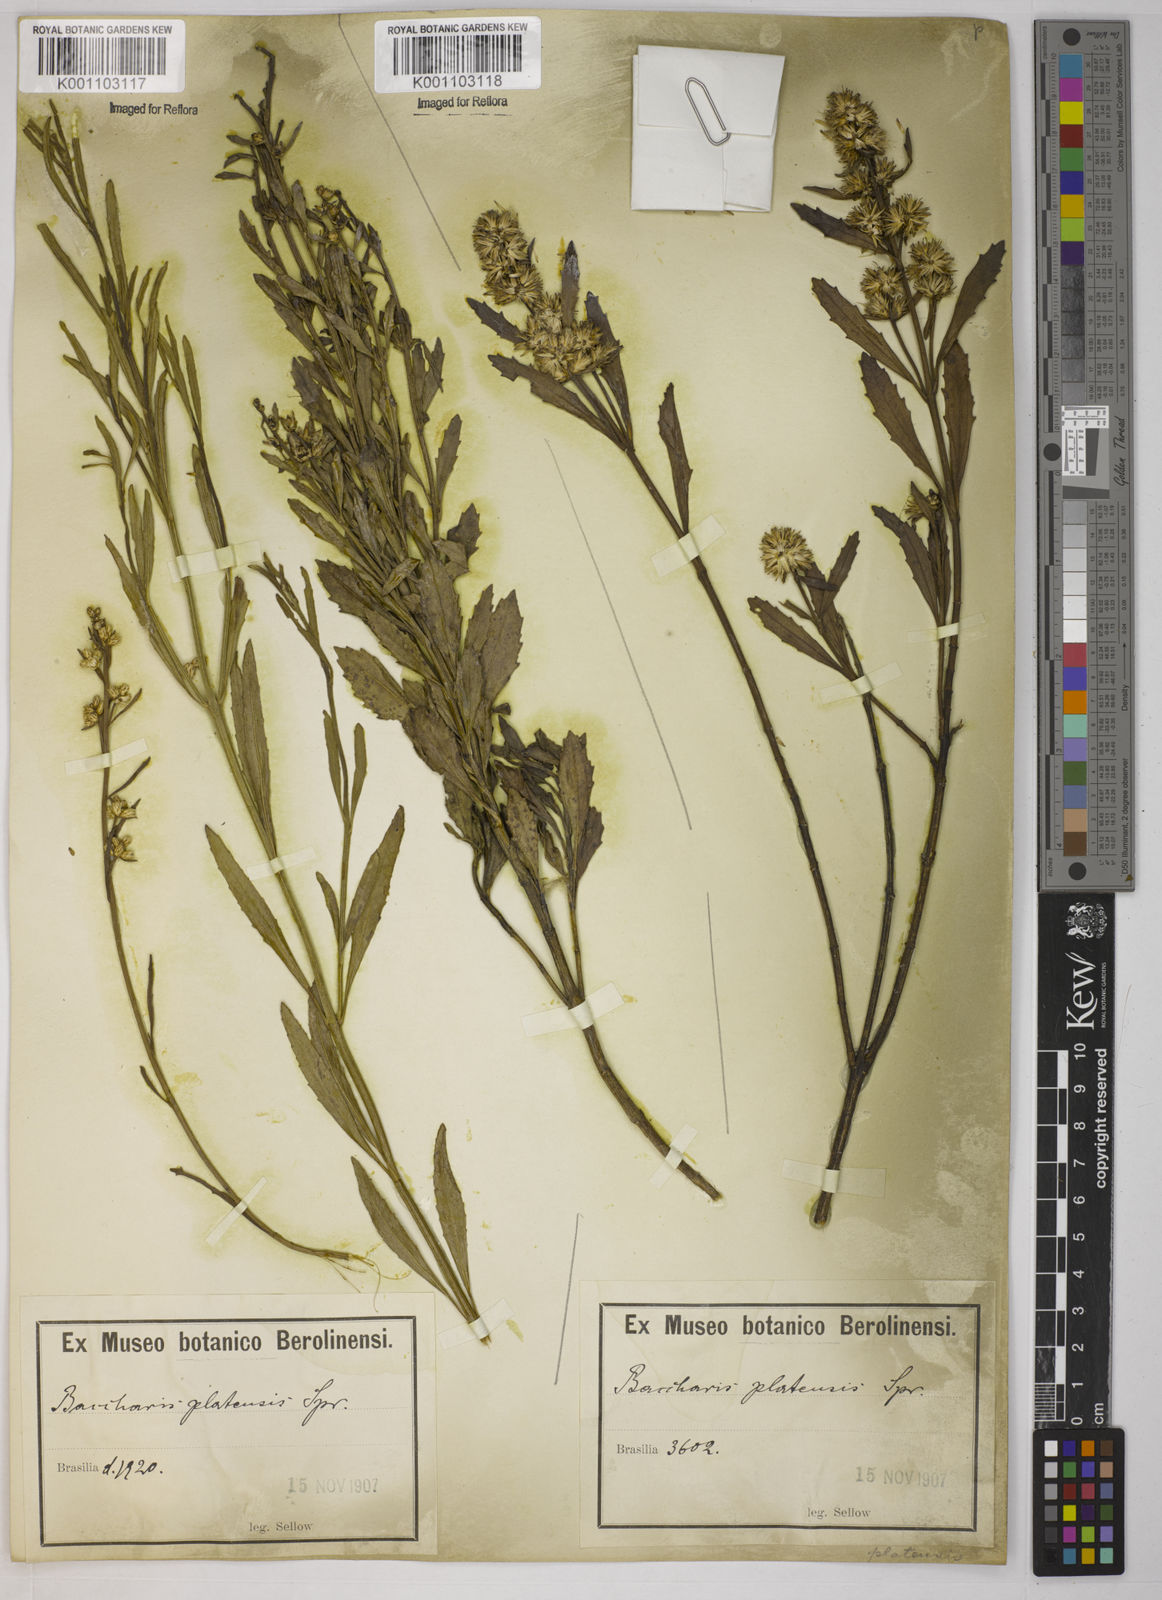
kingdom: Plantae
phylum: Tracheophyta
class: Magnoliopsida
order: Asterales
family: Asteraceae
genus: Baccharis
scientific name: Baccharis hieronymi
